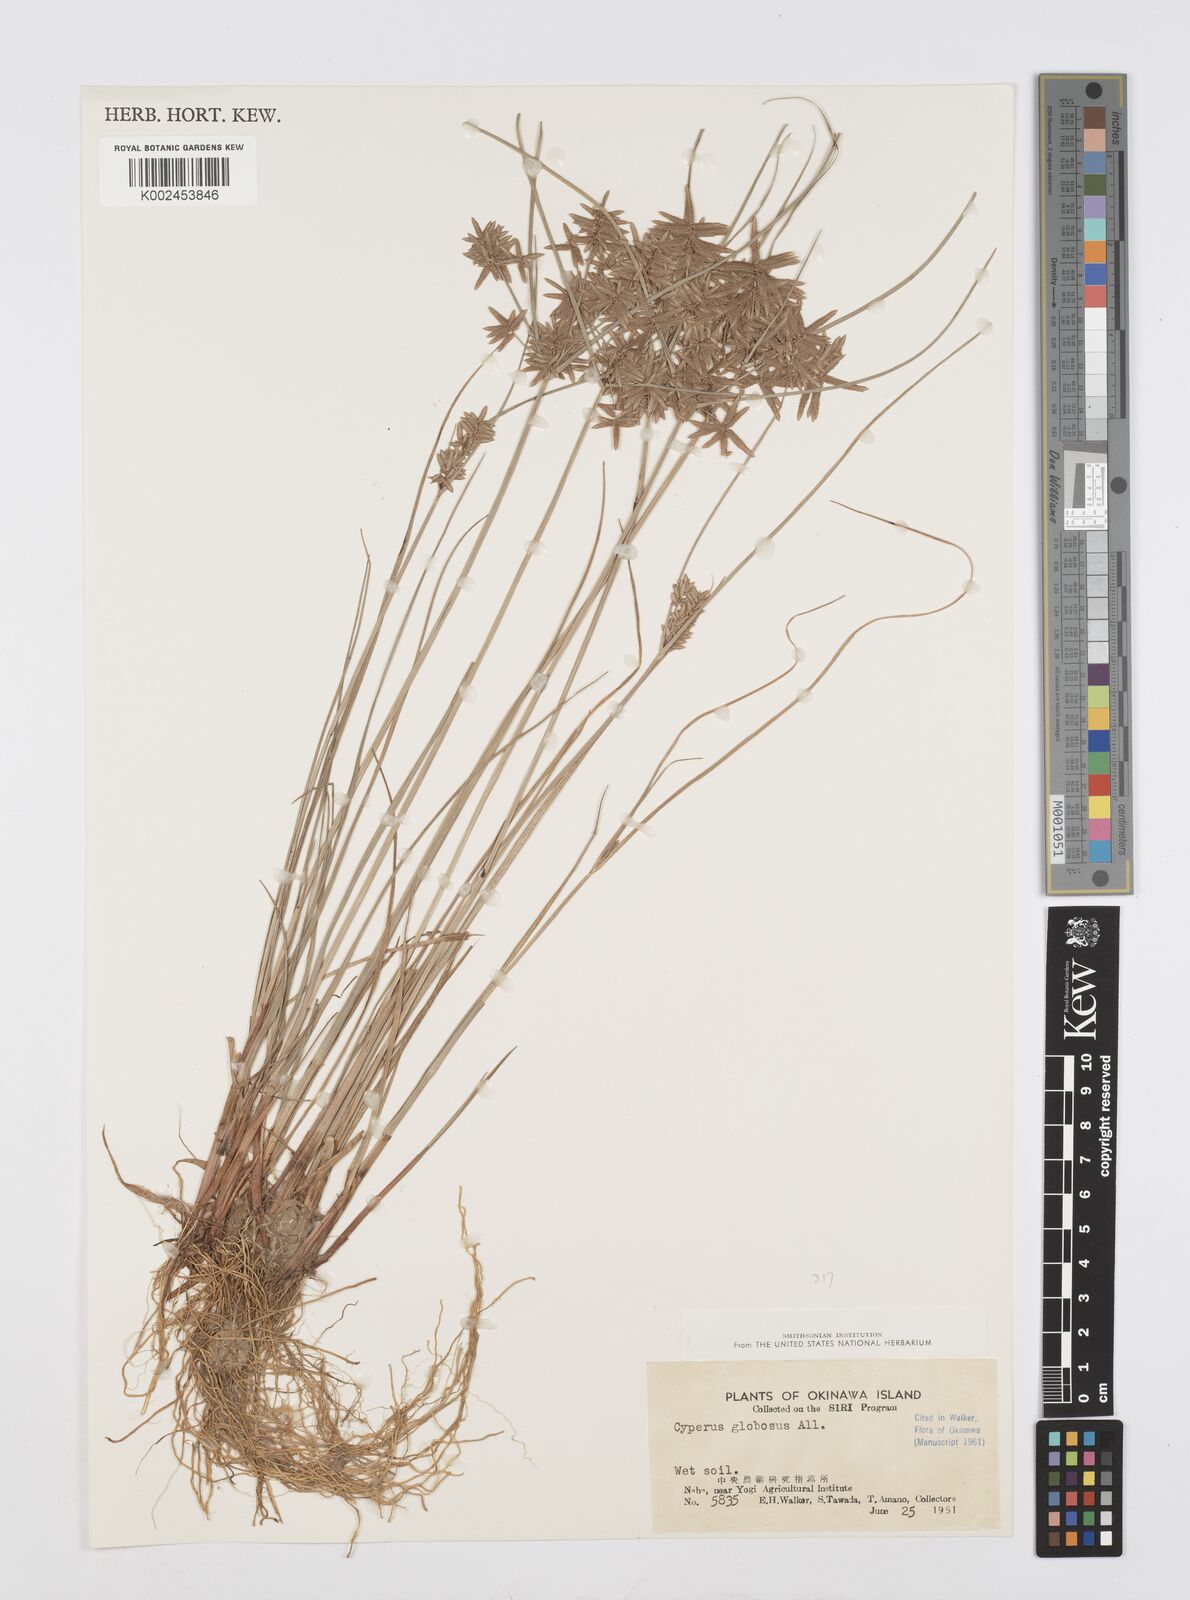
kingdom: Plantae
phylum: Tracheophyta
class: Liliopsida
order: Poales
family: Cyperaceae
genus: Cyperus
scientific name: Cyperus flavidus
